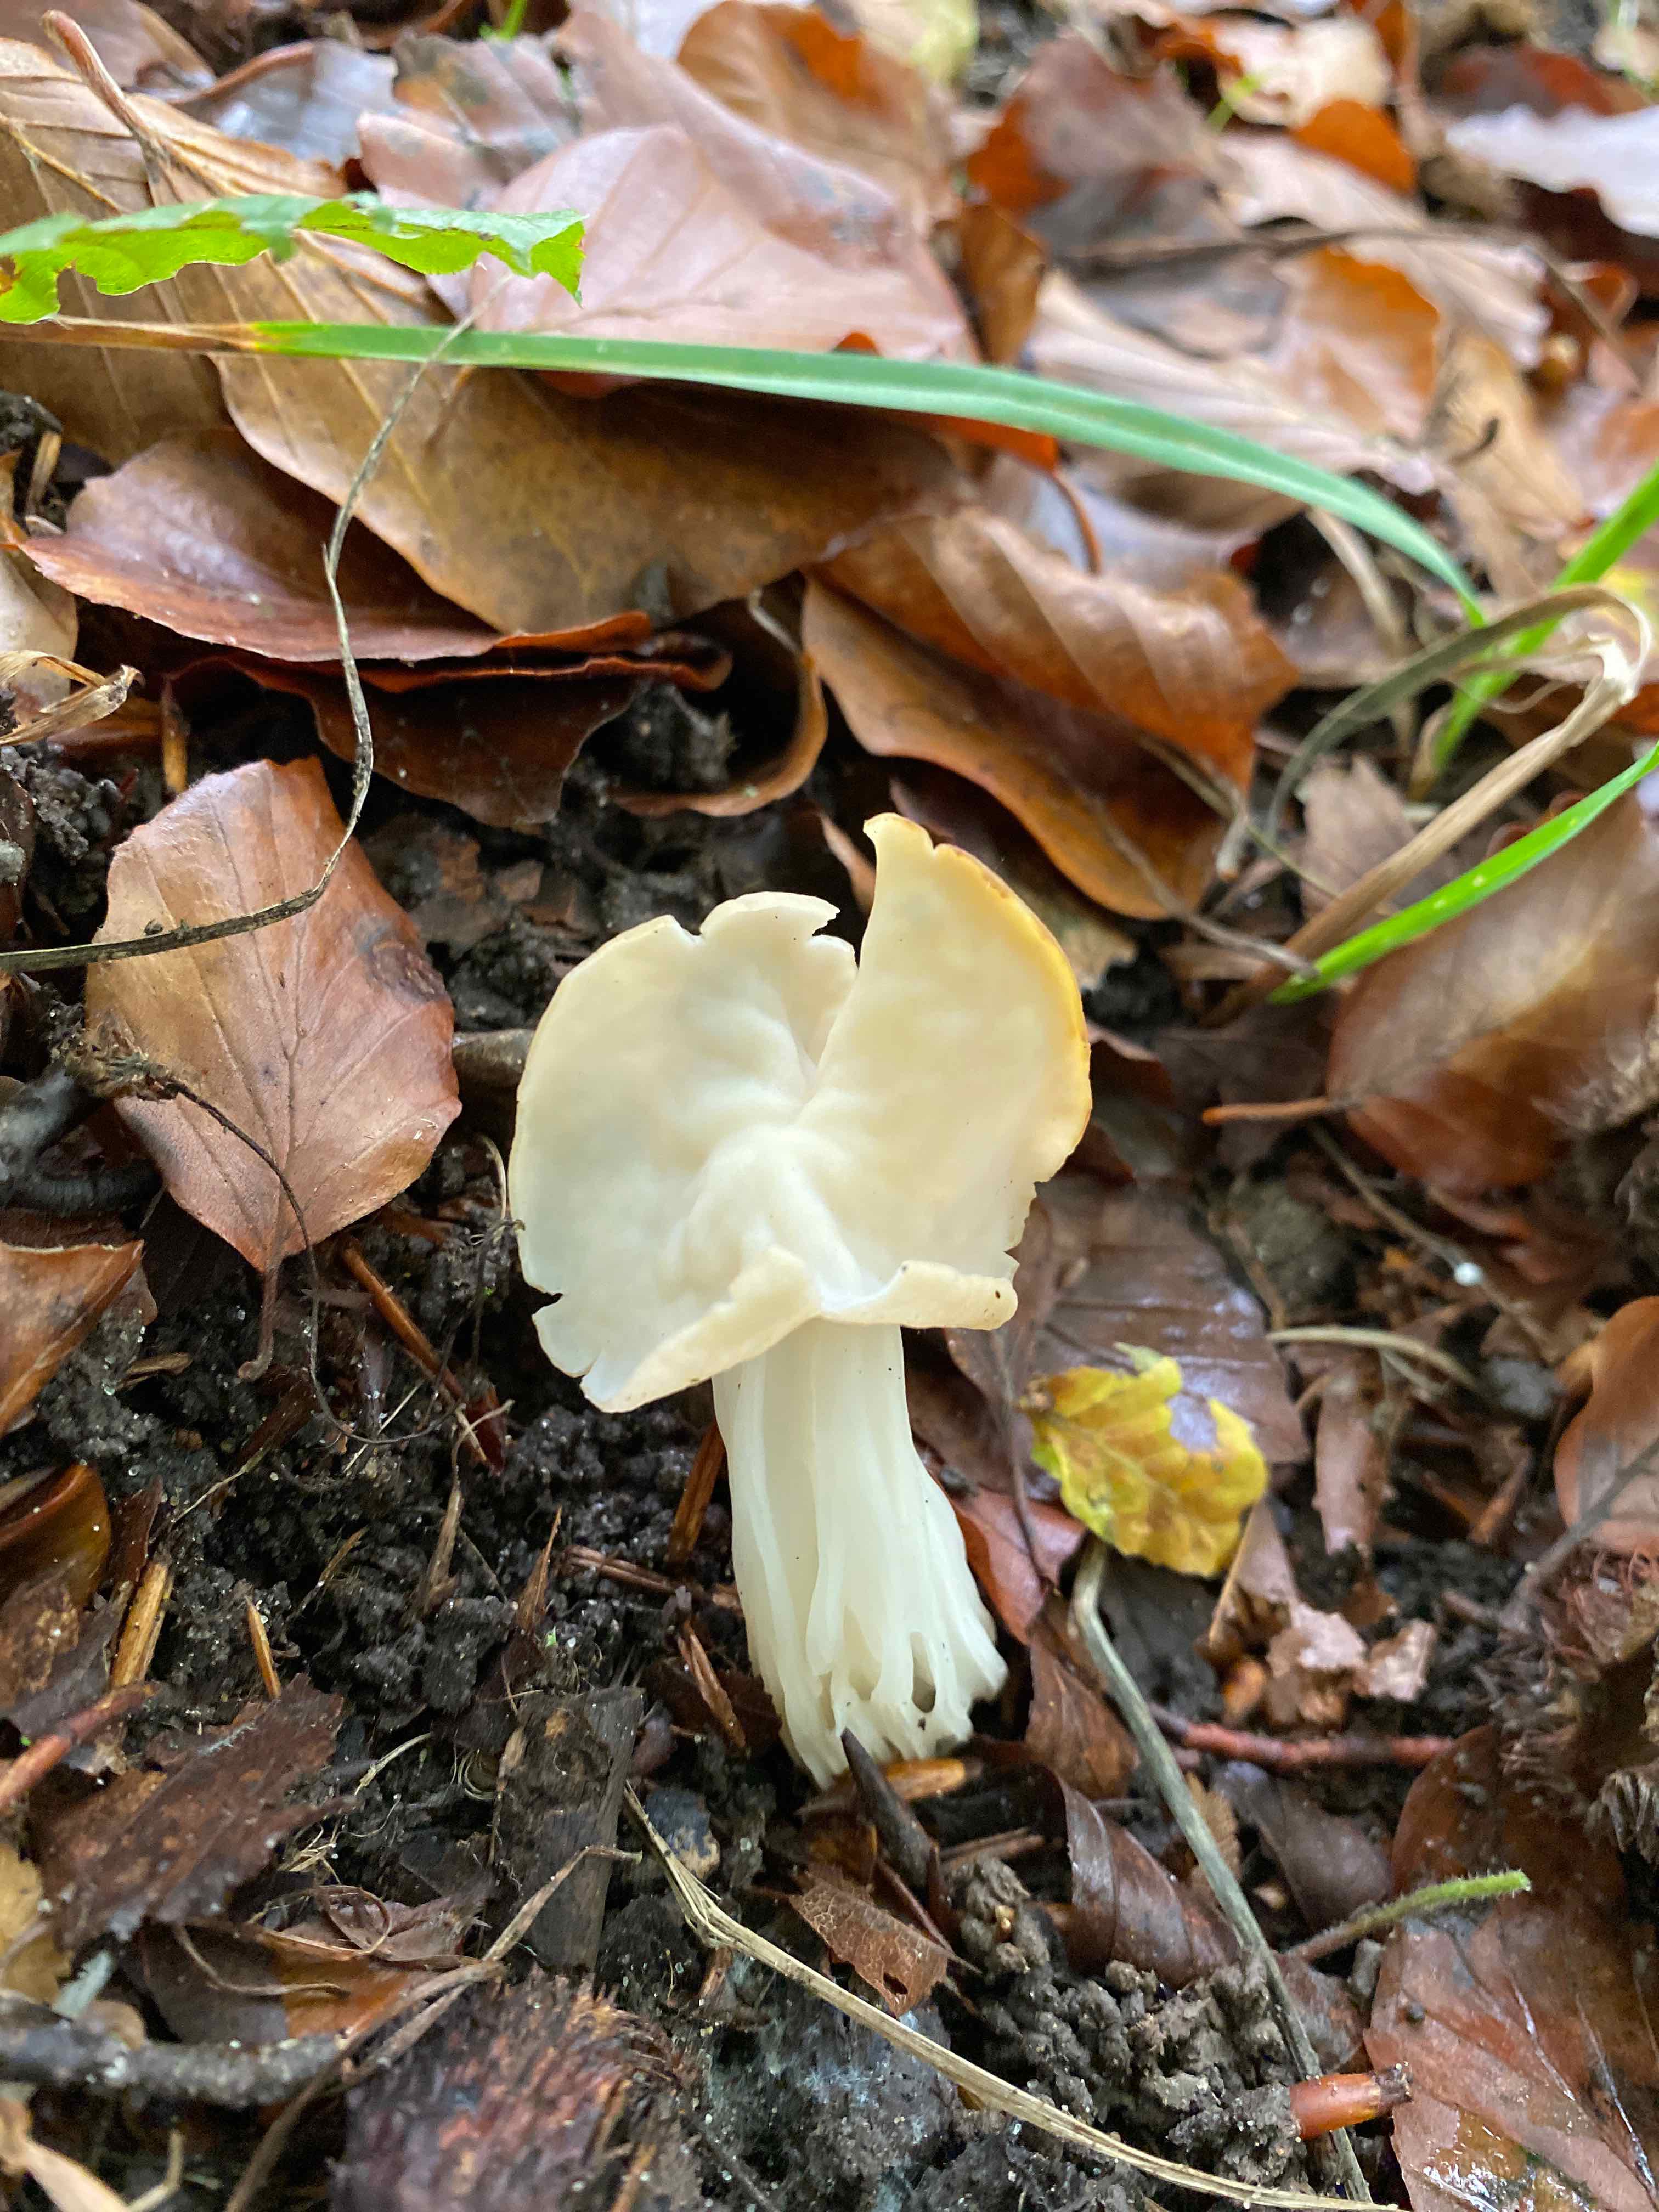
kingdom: Fungi
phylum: Ascomycota
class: Pezizomycetes
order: Pezizales
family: Helvellaceae
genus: Helvella
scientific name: Helvella crispa
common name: kruset foldhat
